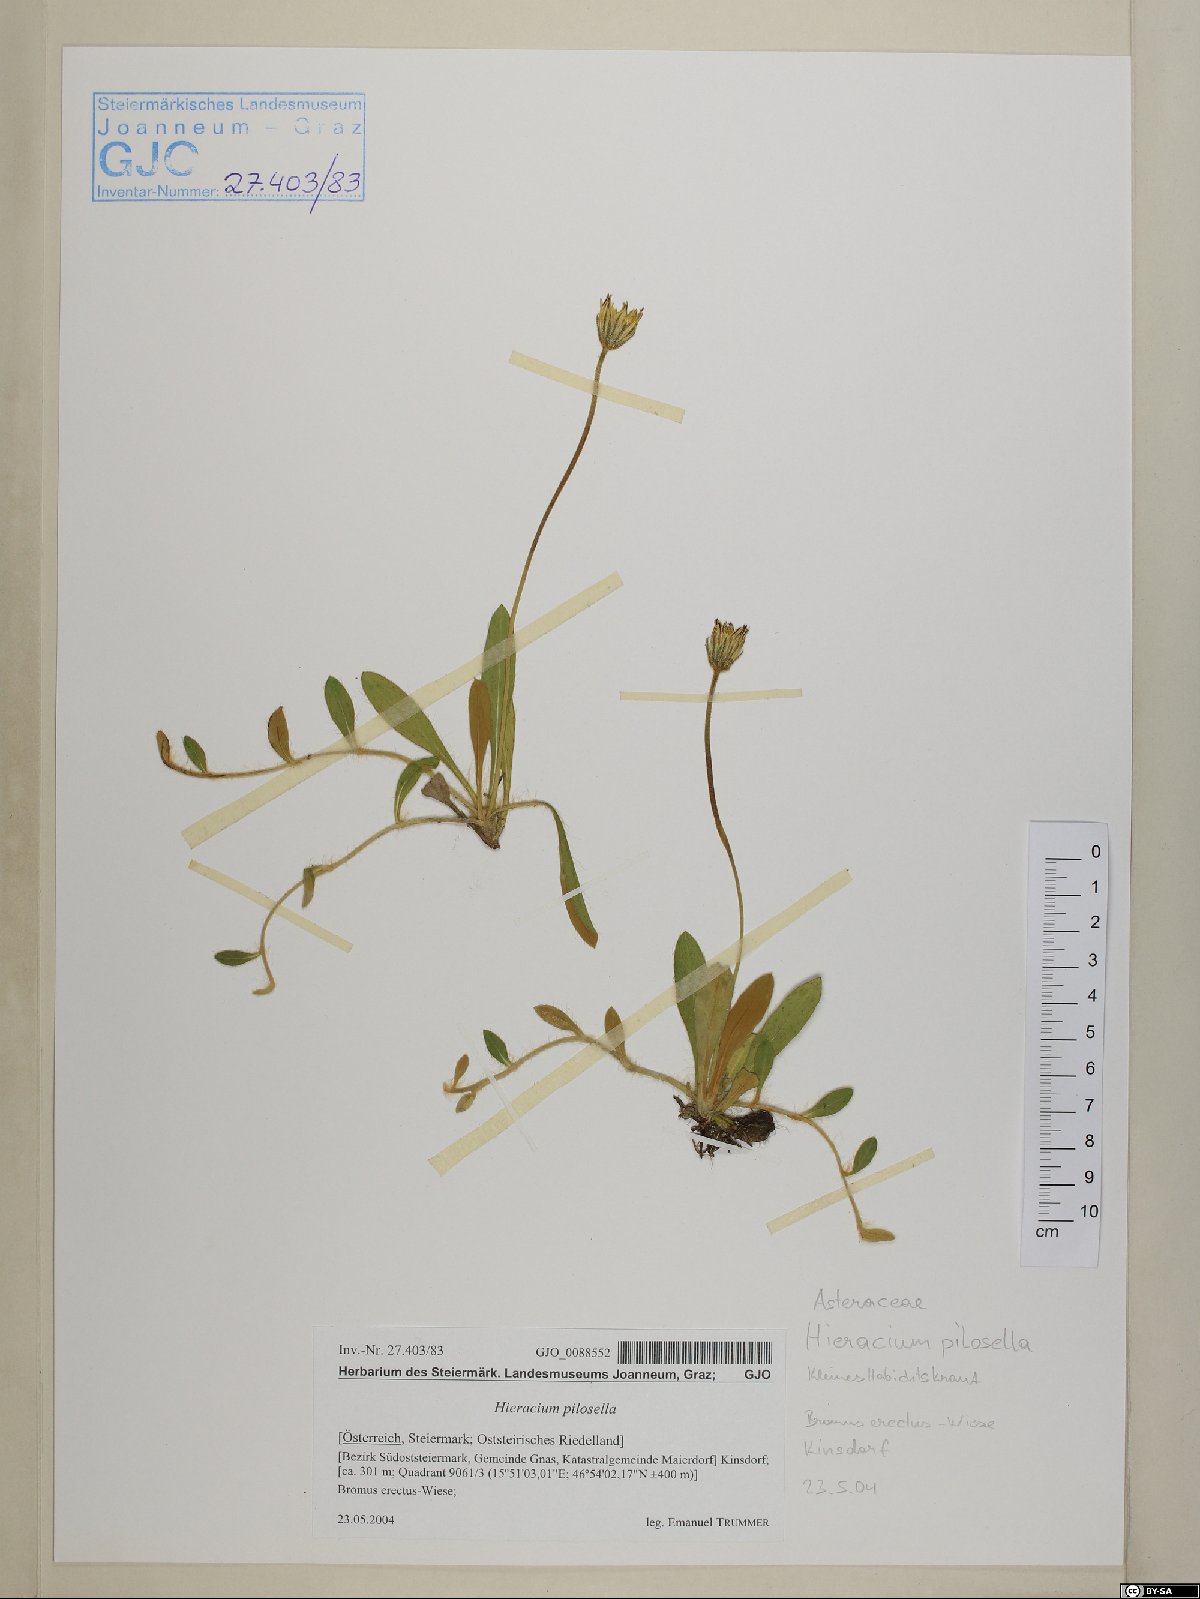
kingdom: Plantae
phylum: Tracheophyta
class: Magnoliopsida
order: Asterales
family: Asteraceae
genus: Pilosella
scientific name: Pilosella officinarum
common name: Mouse-ear hawkweed
